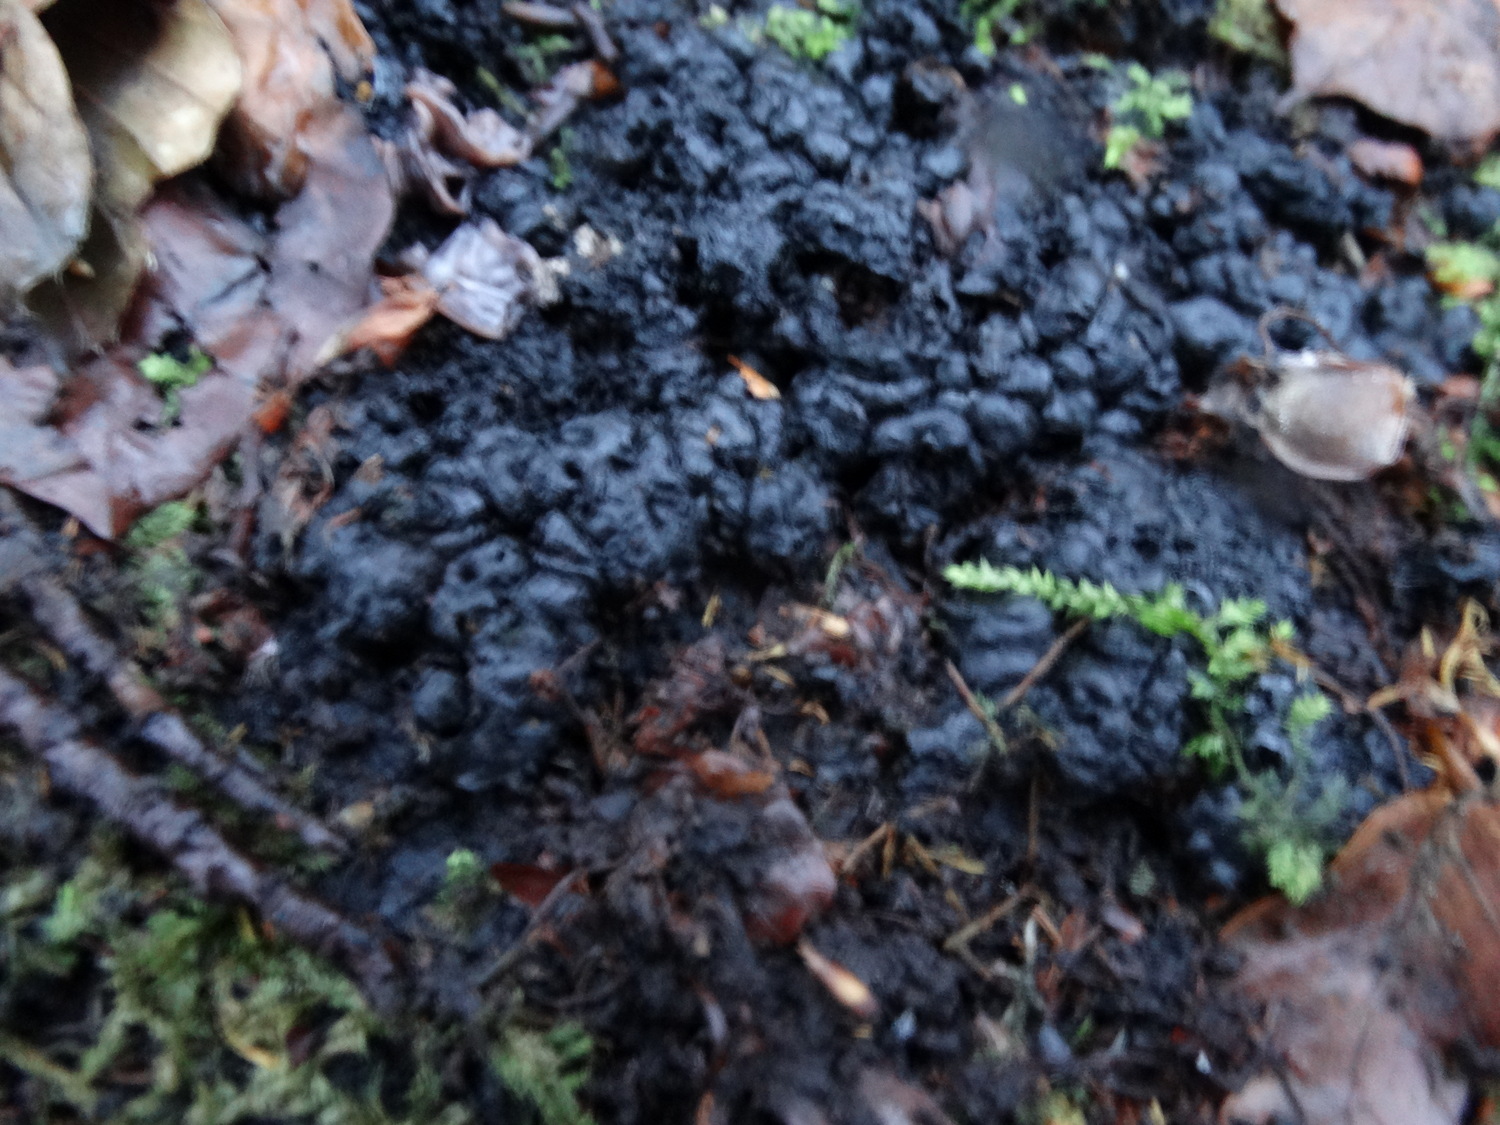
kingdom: Fungi
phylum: Ascomycota
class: Sordariomycetes
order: Xylariales
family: Xylariaceae
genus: Kretzschmaria
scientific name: Kretzschmaria deusta
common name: stor kulsvamp
